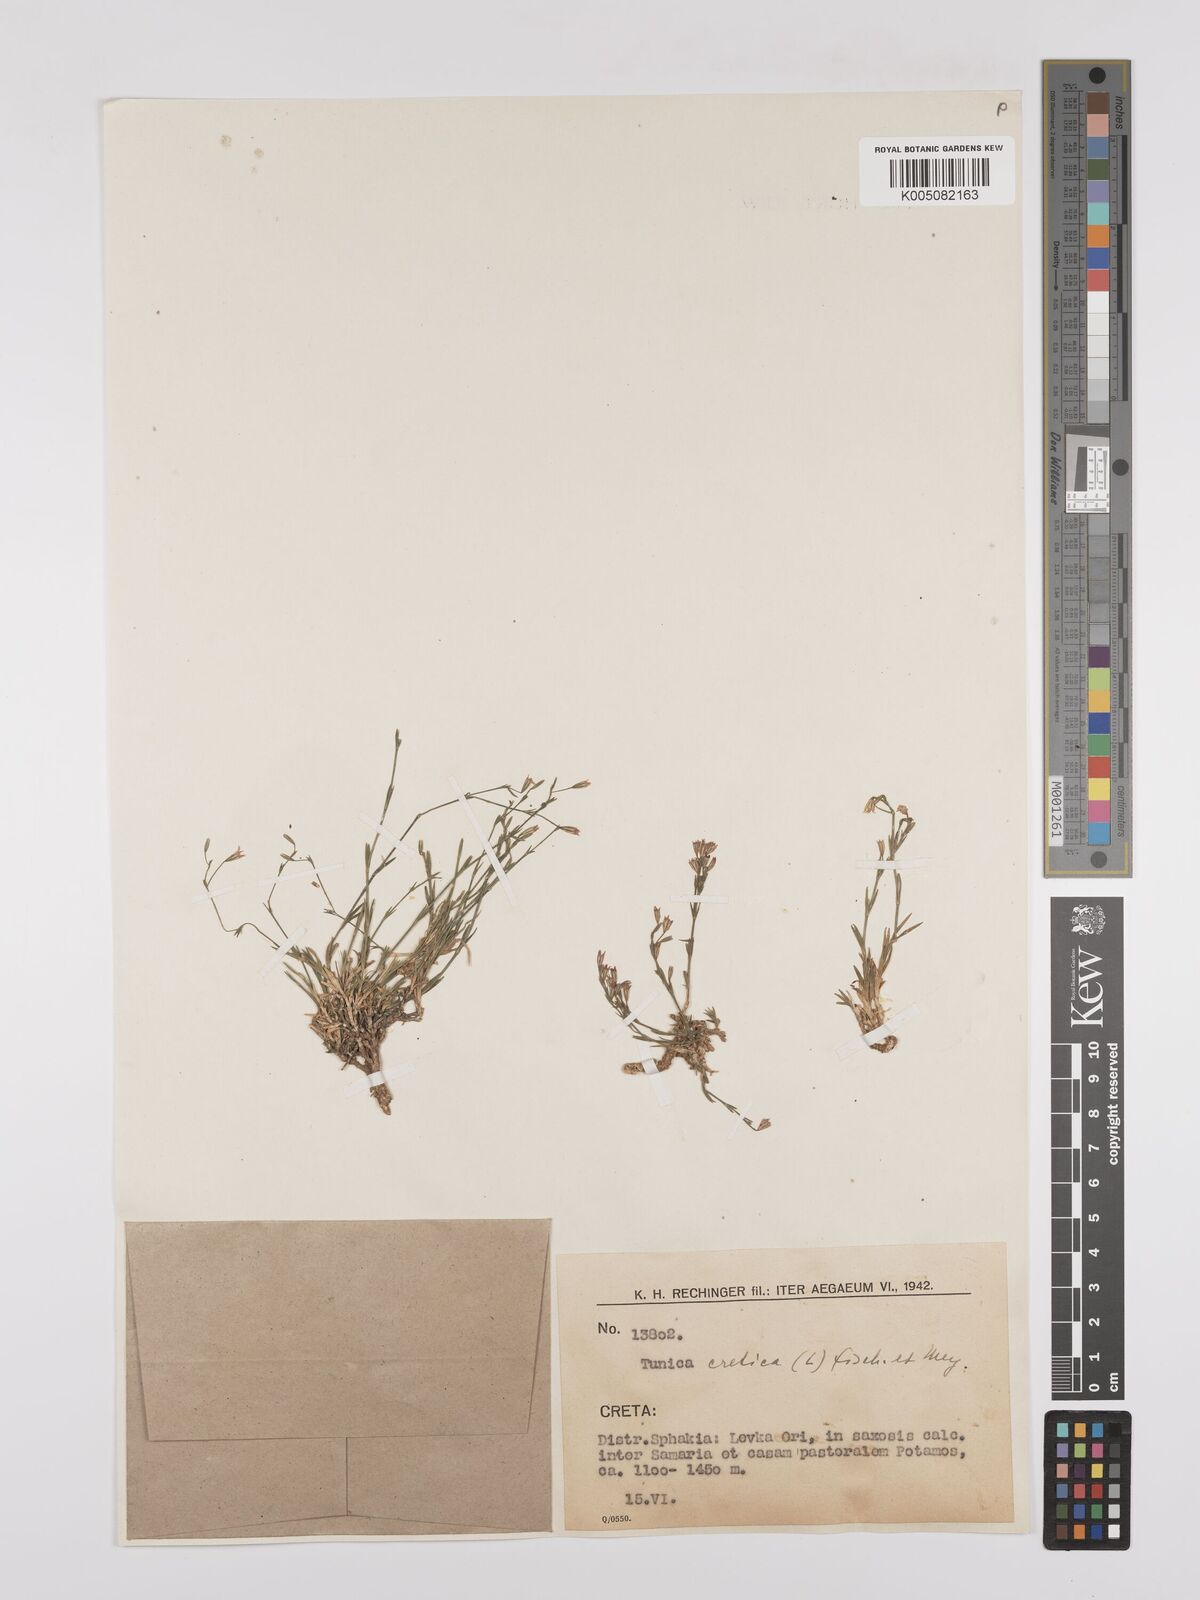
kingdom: Plantae
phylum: Tracheophyta
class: Magnoliopsida
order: Caryophyllales
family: Caryophyllaceae
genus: Petrorhagia
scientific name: Petrorhagia cretica
